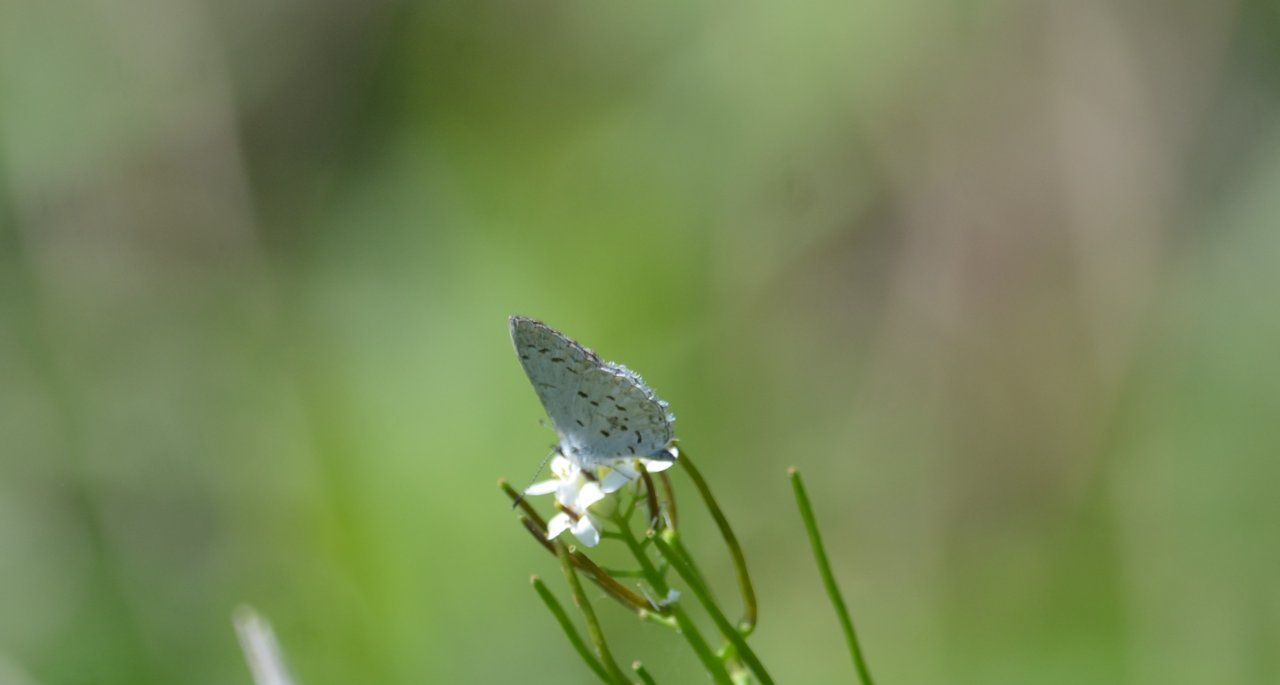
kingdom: Animalia
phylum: Arthropoda
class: Insecta
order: Lepidoptera
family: Lycaenidae
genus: Celastrina
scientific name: Celastrina lucia
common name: Northern Spring Azure
